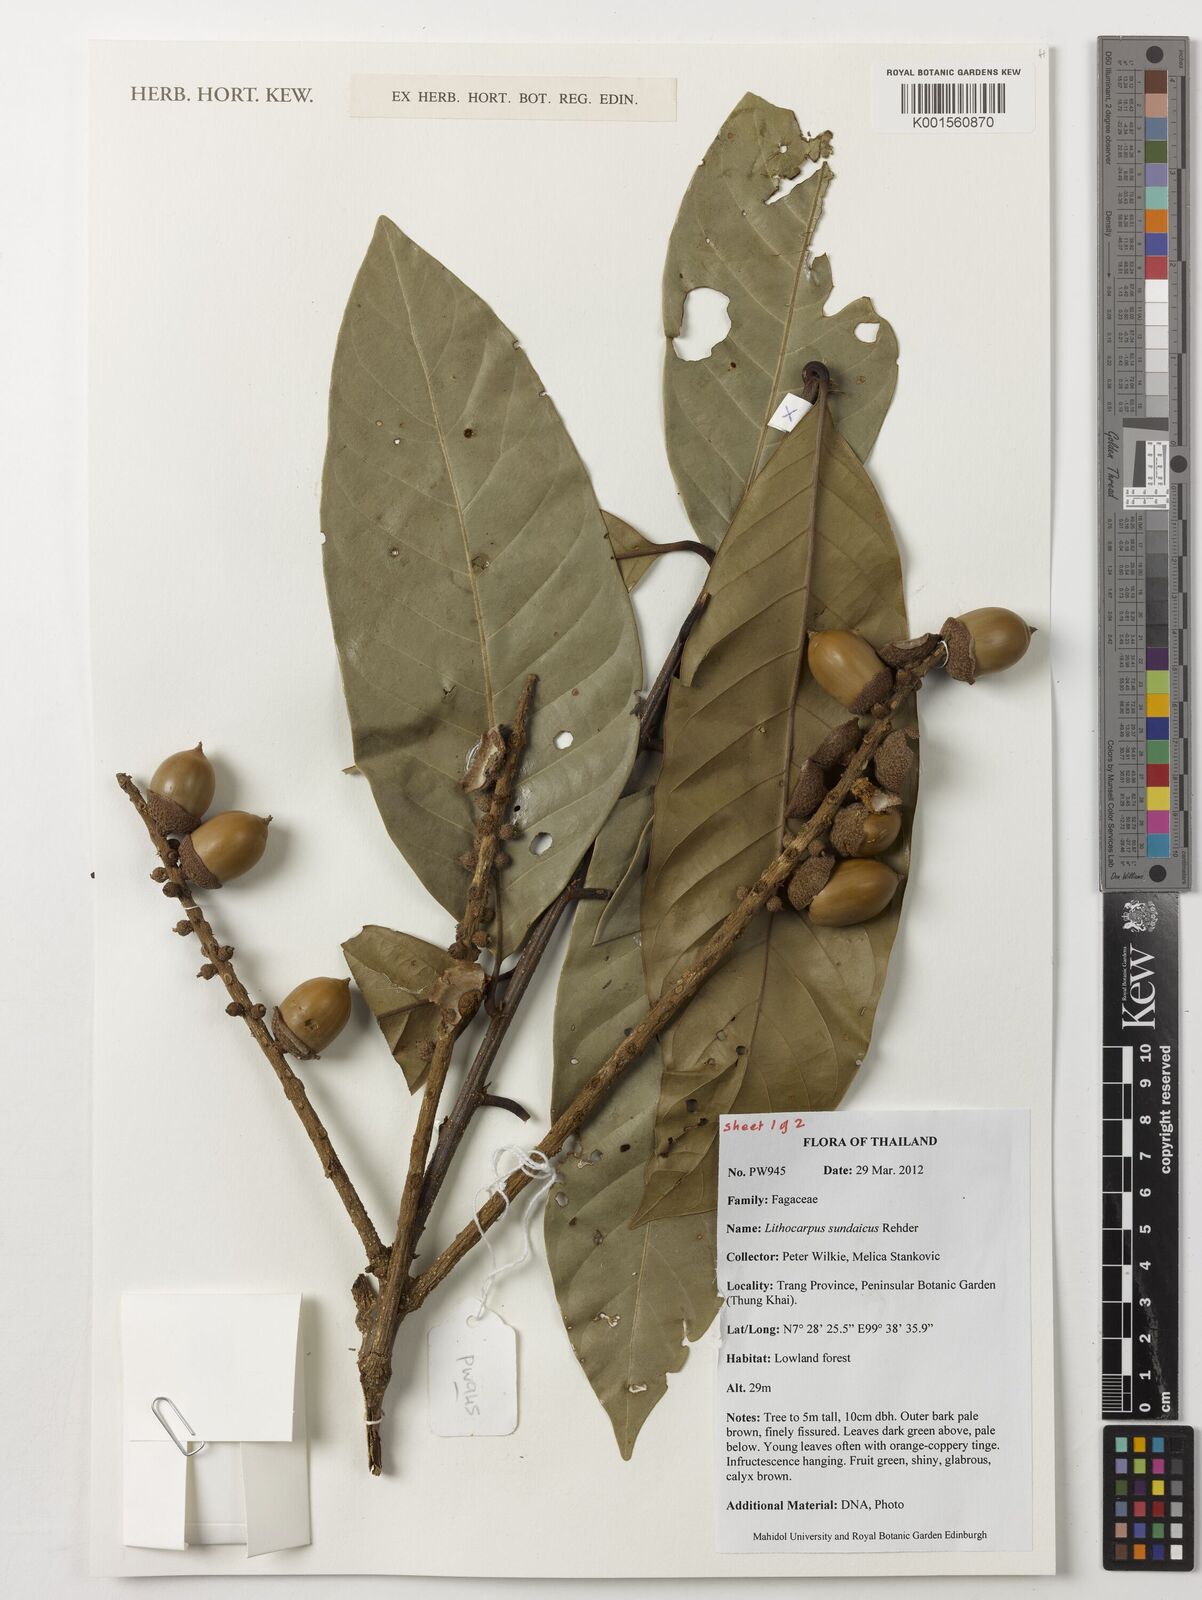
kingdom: Plantae
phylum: Tracheophyta
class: Magnoliopsida
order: Fagales
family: Fagaceae
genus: Lithocarpus
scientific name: Lithocarpus sundaicus
